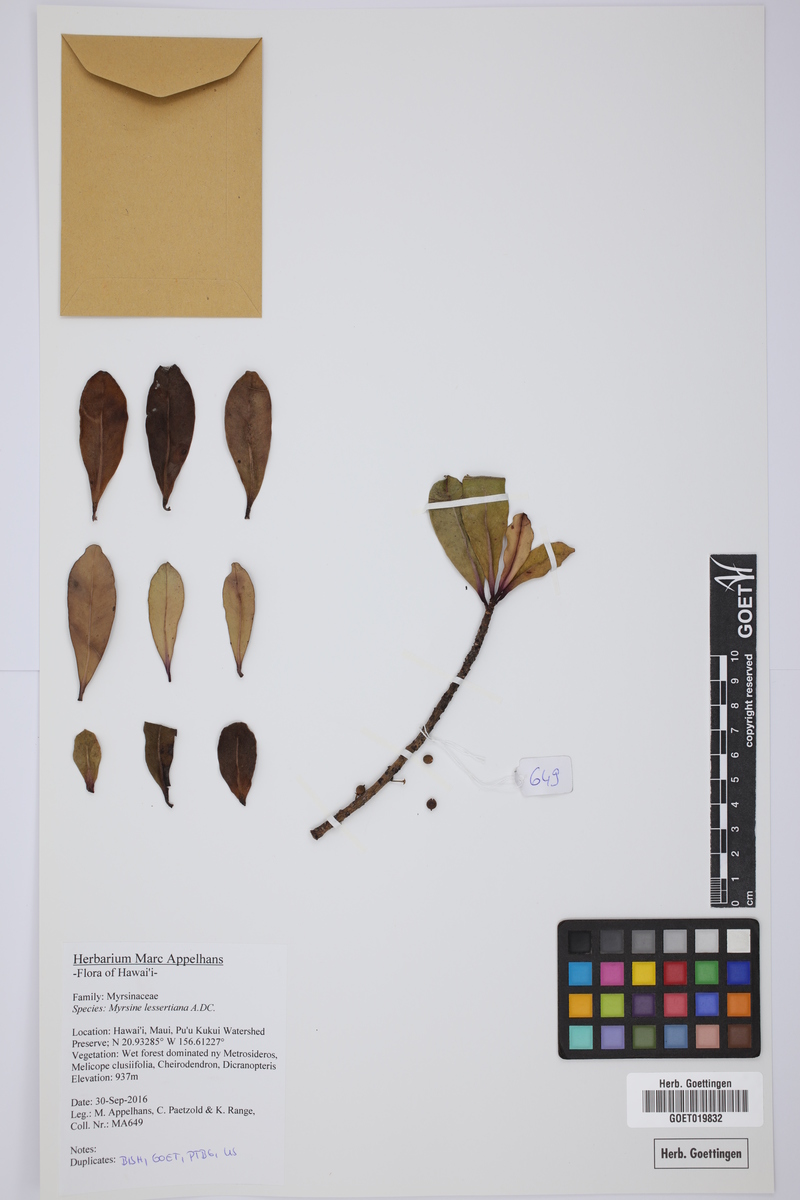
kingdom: Plantae
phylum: Tracheophyta
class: Magnoliopsida
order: Ericales
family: Primulaceae
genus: Myrsine
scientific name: Myrsine lessertiana
